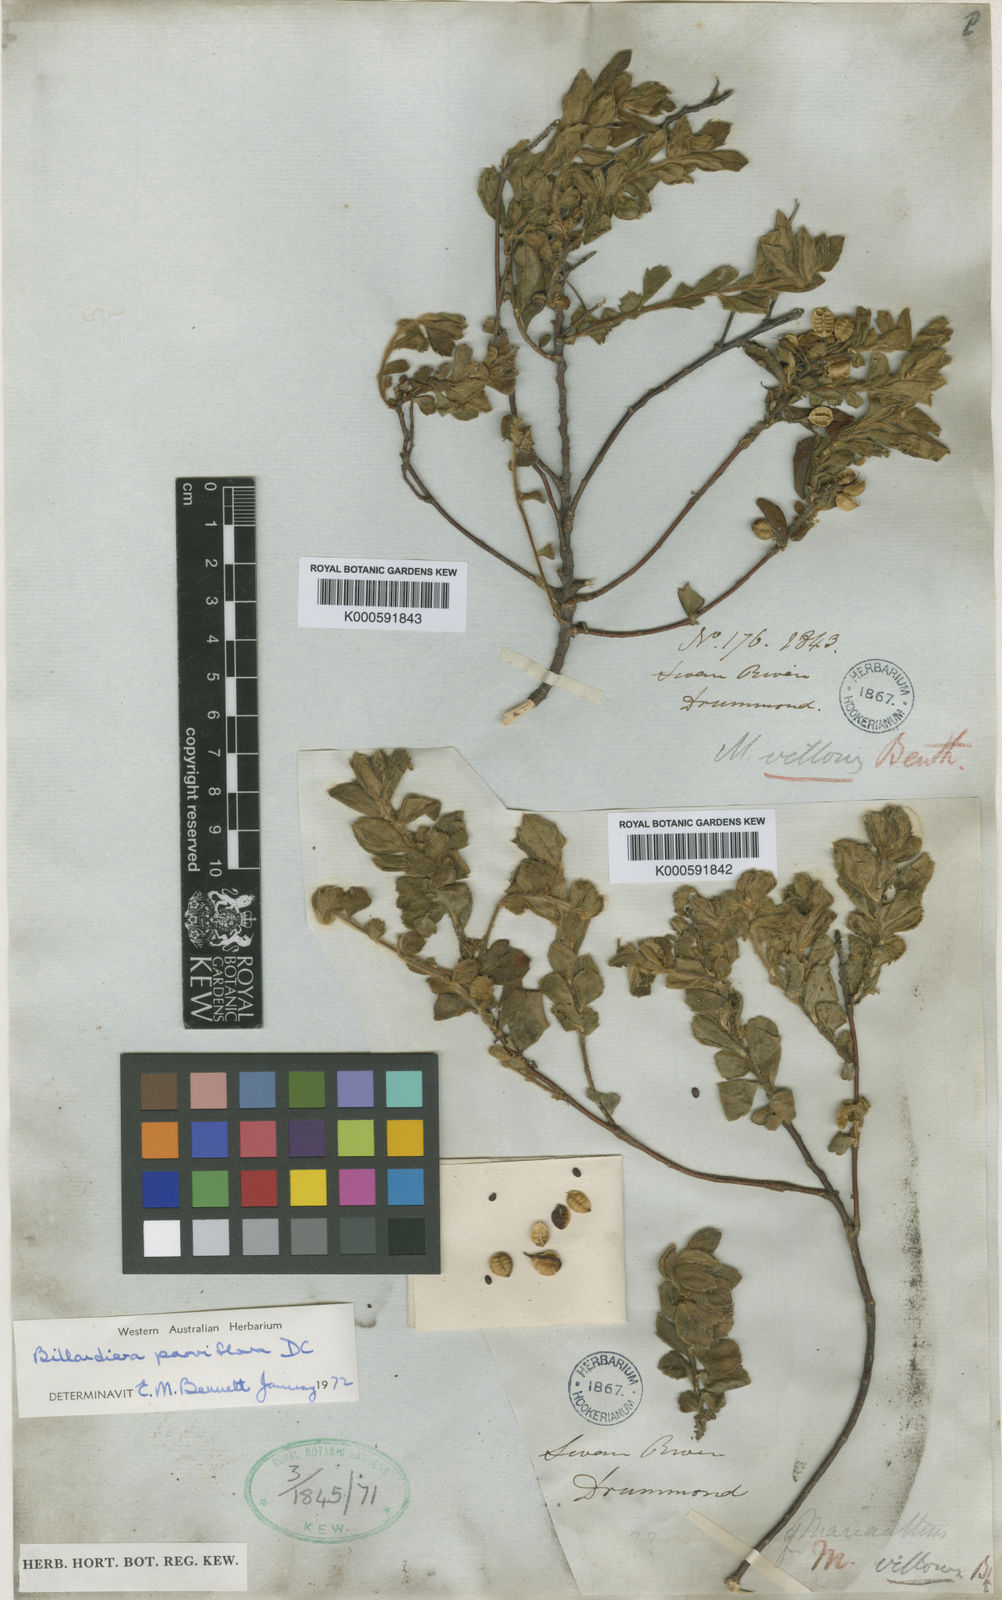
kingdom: Plantae
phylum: Tracheophyta
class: Magnoliopsida
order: Apiales
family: Pittosporaceae
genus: Marianthus
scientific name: Marianthus microphyllus
